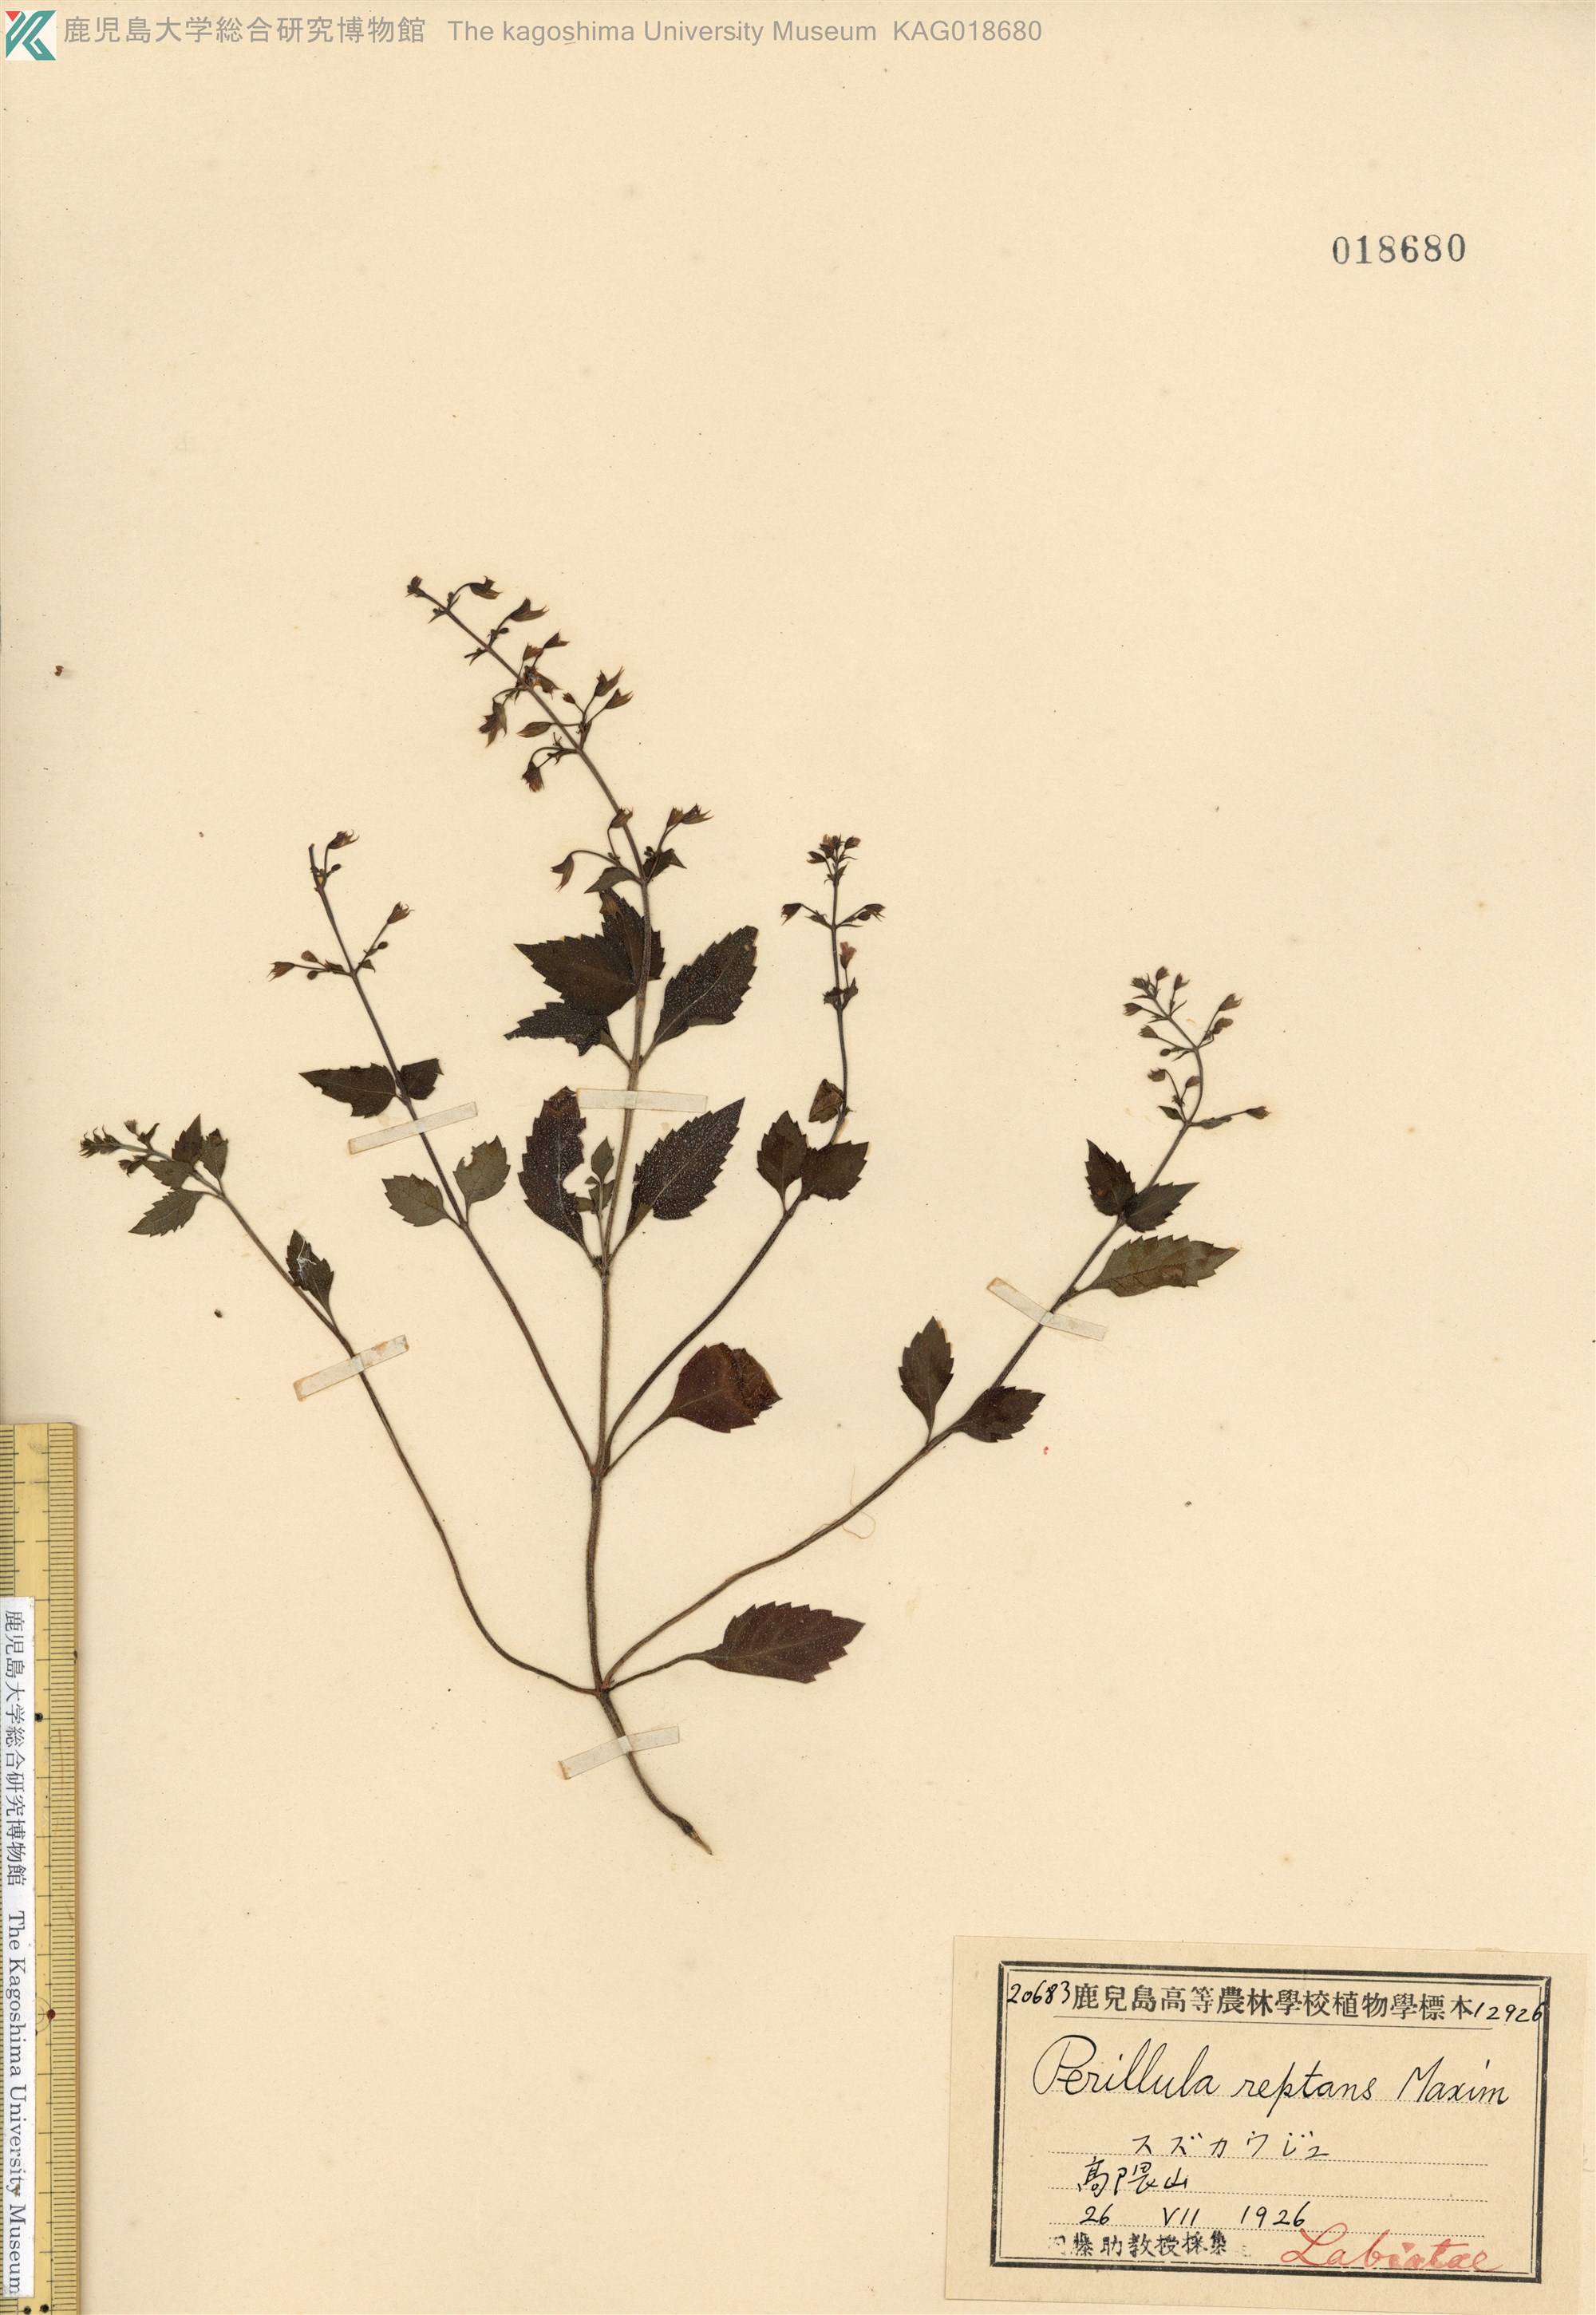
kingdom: Plantae
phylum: Tracheophyta
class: Magnoliopsida
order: Lamiales
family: Lamiaceae
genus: Perillula
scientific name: Perillula reptans
